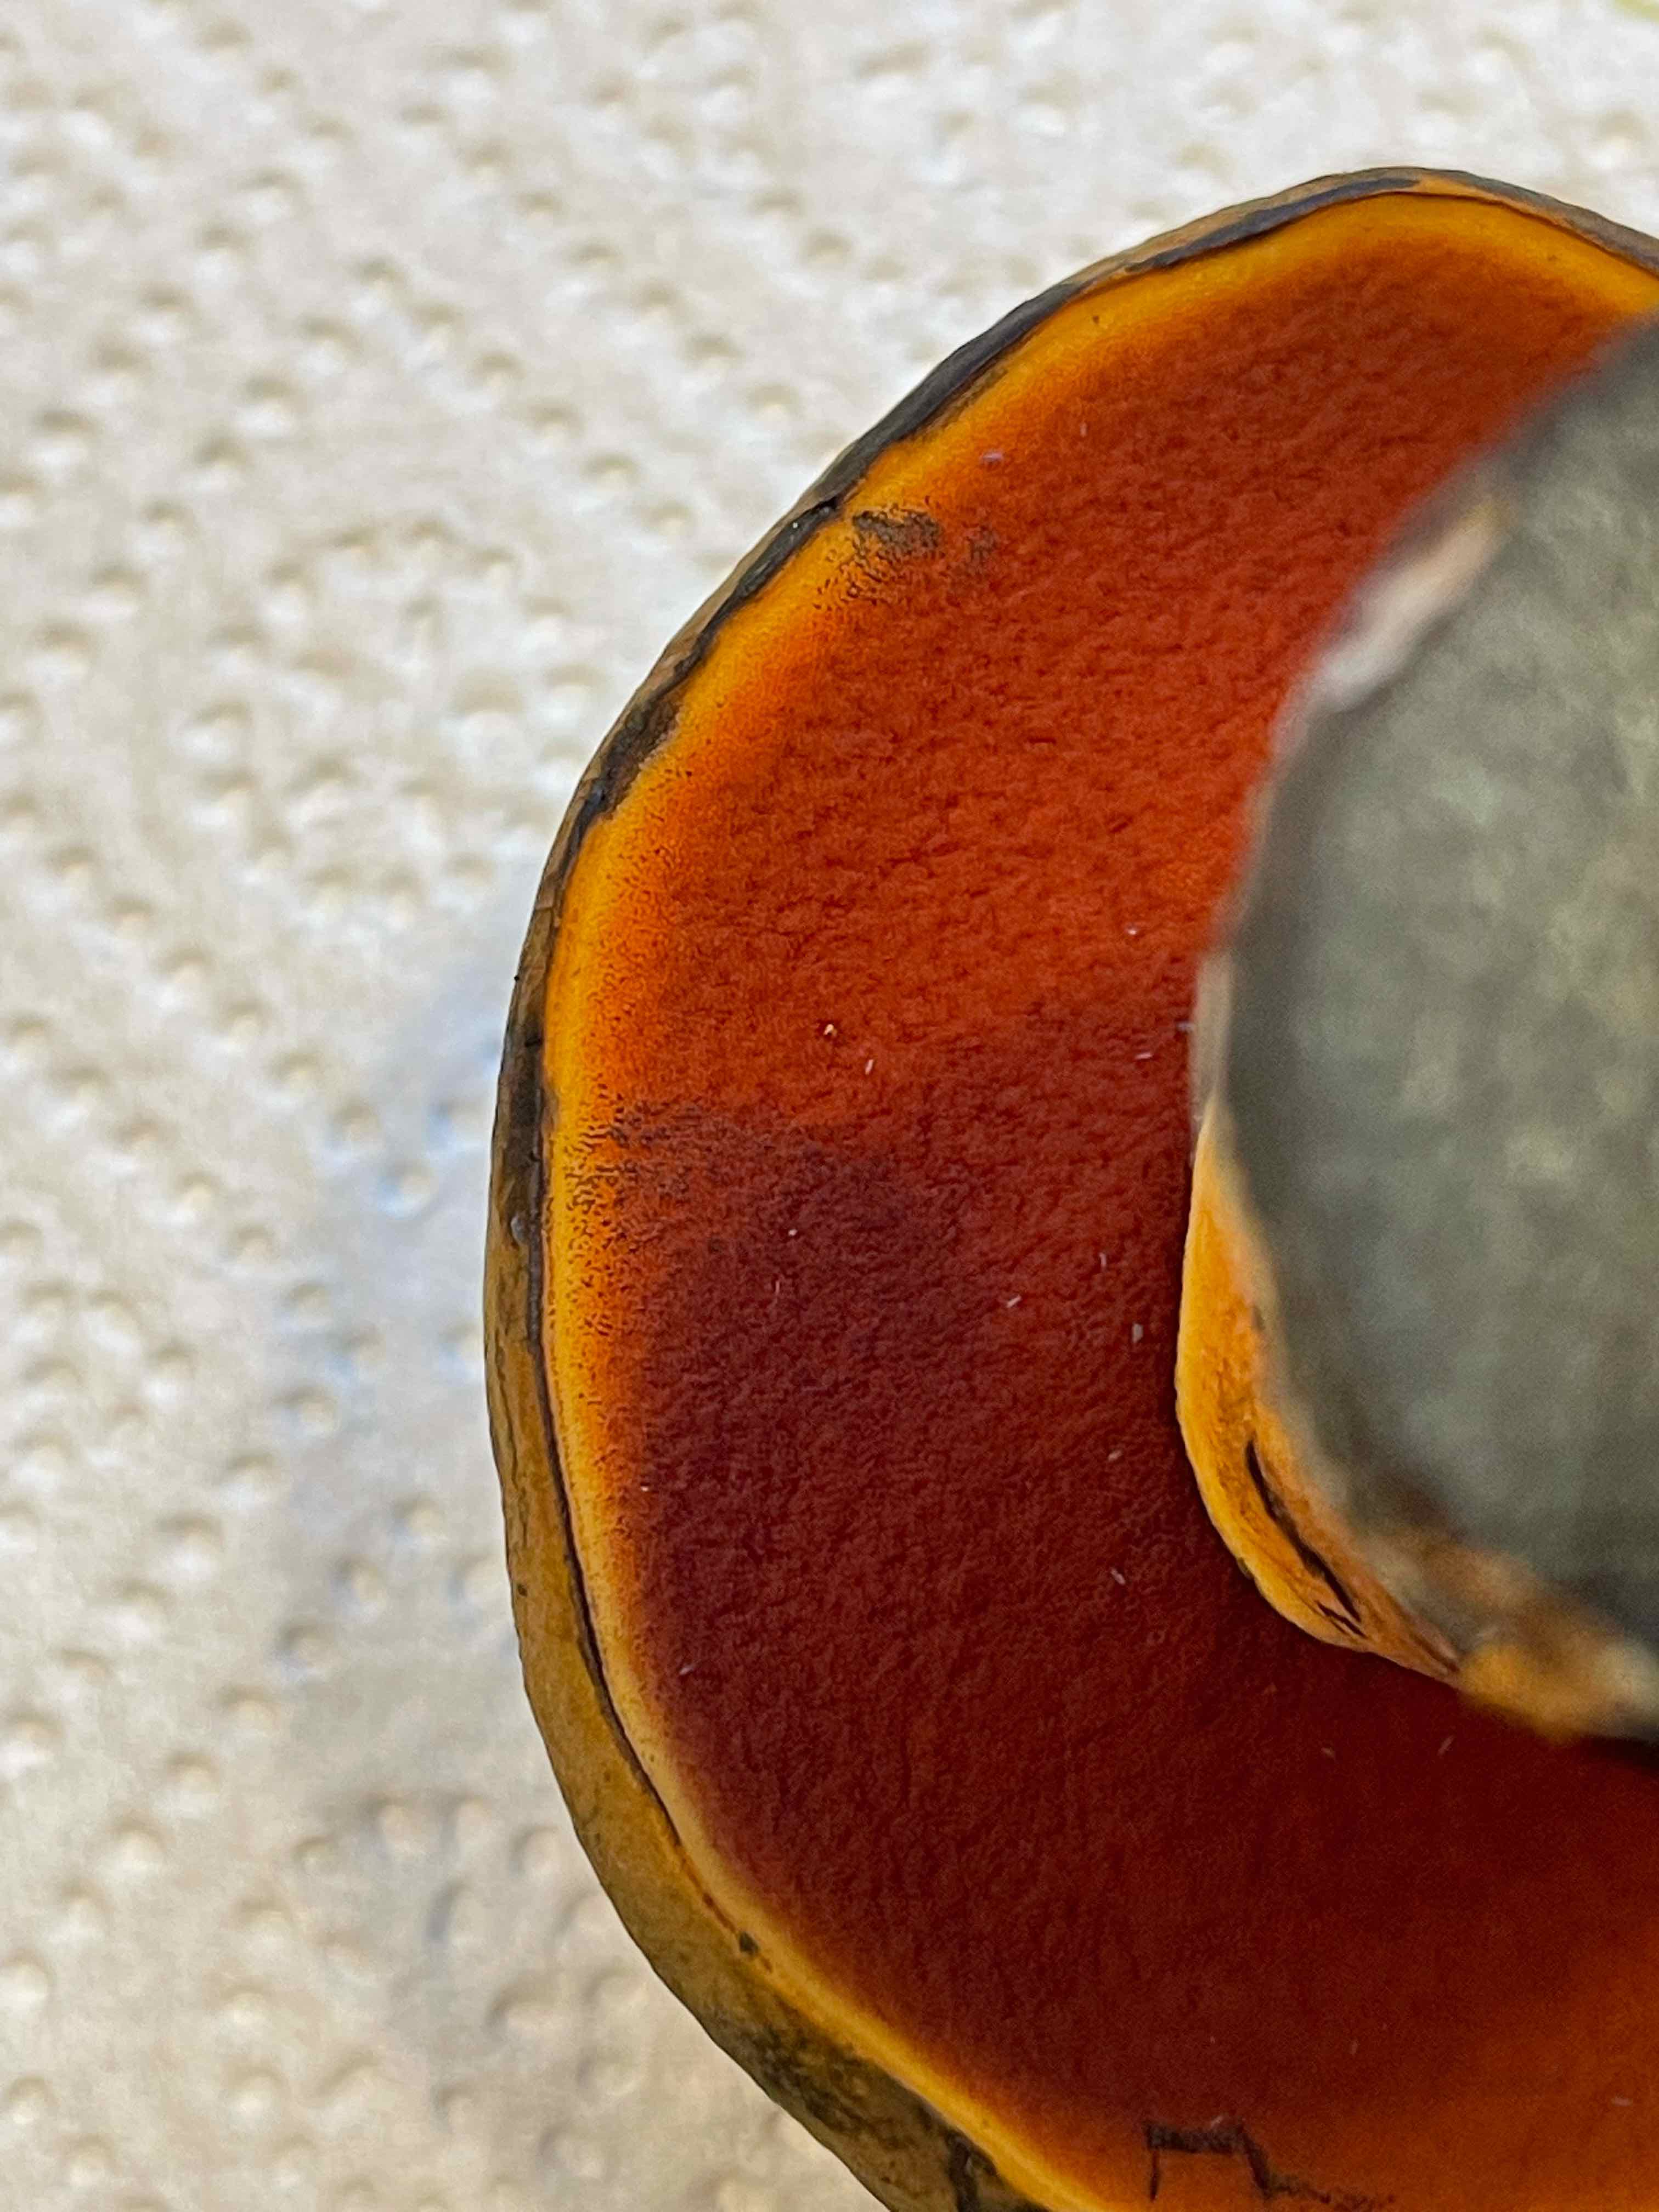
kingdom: Fungi
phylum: Basidiomycota
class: Agaricomycetes
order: Boletales
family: Boletaceae
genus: Neoboletus
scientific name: Neoboletus xanthopus
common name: finprikket indigorørhat
